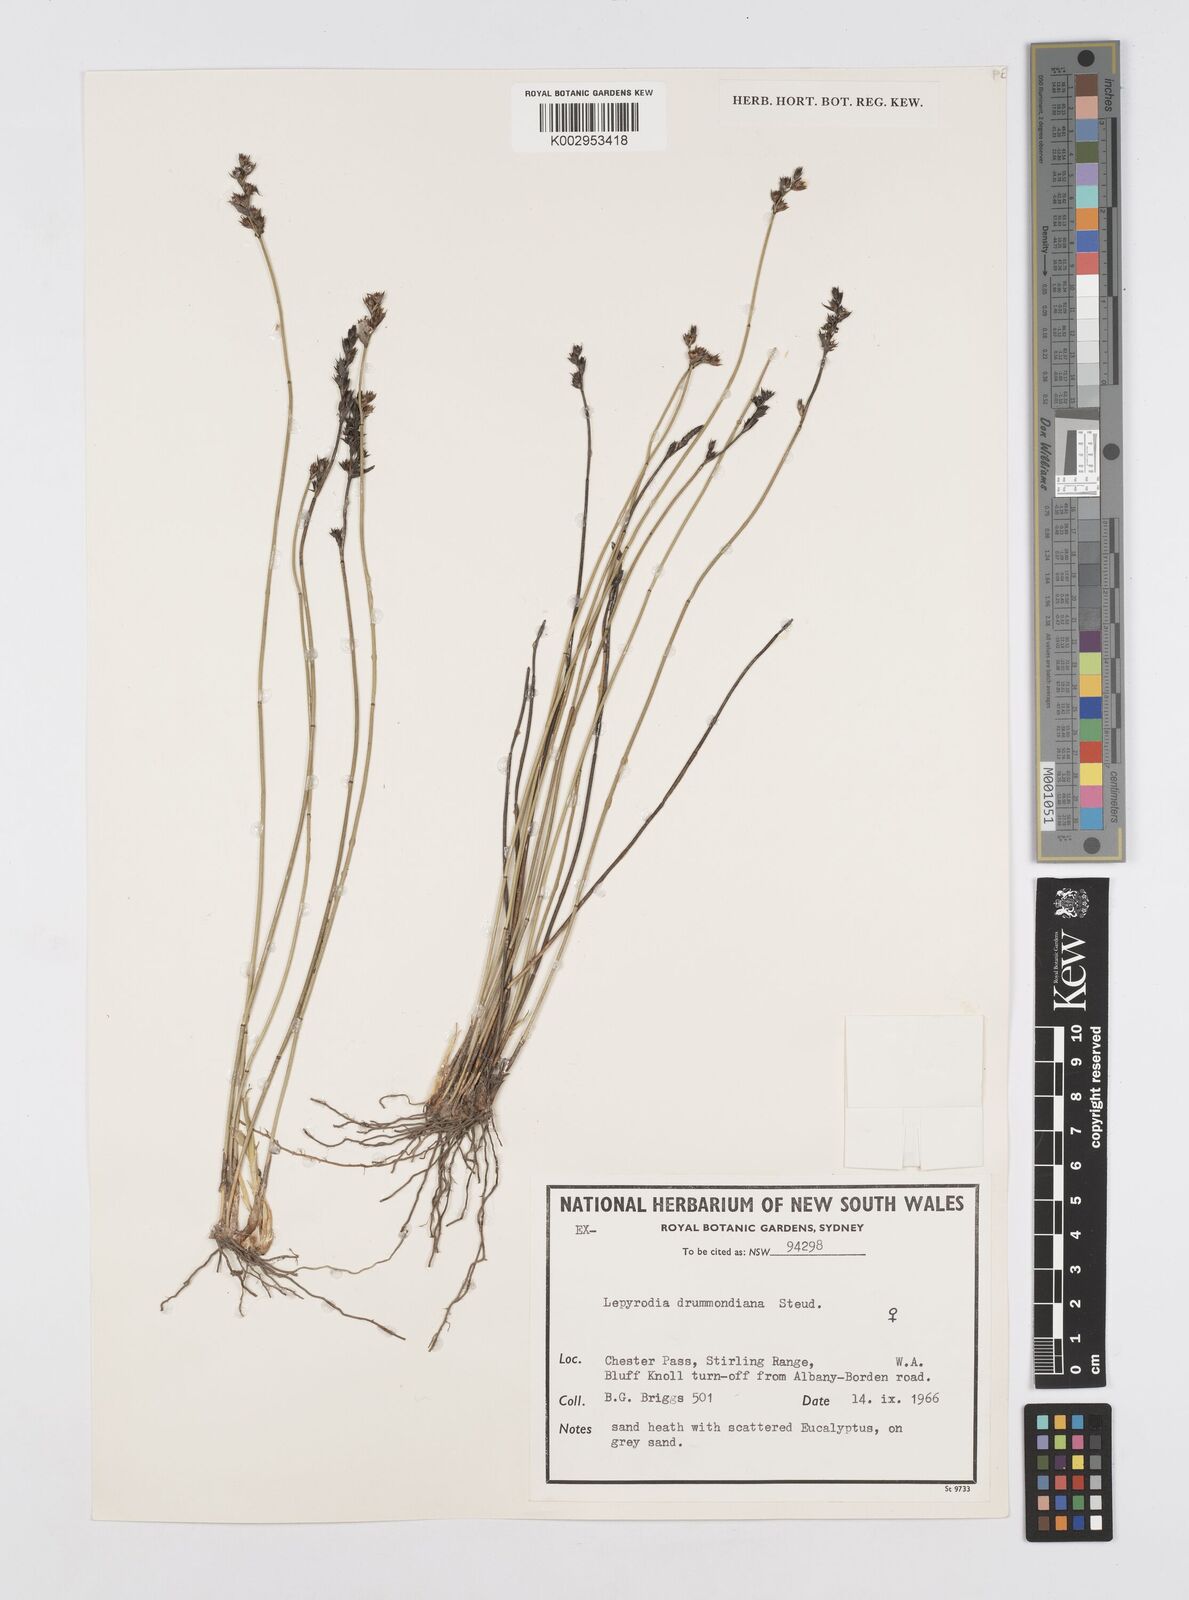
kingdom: Plantae
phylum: Tracheophyta
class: Liliopsida
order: Poales
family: Restionaceae
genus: Lepyrodia
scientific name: Lepyrodia drummondiana
